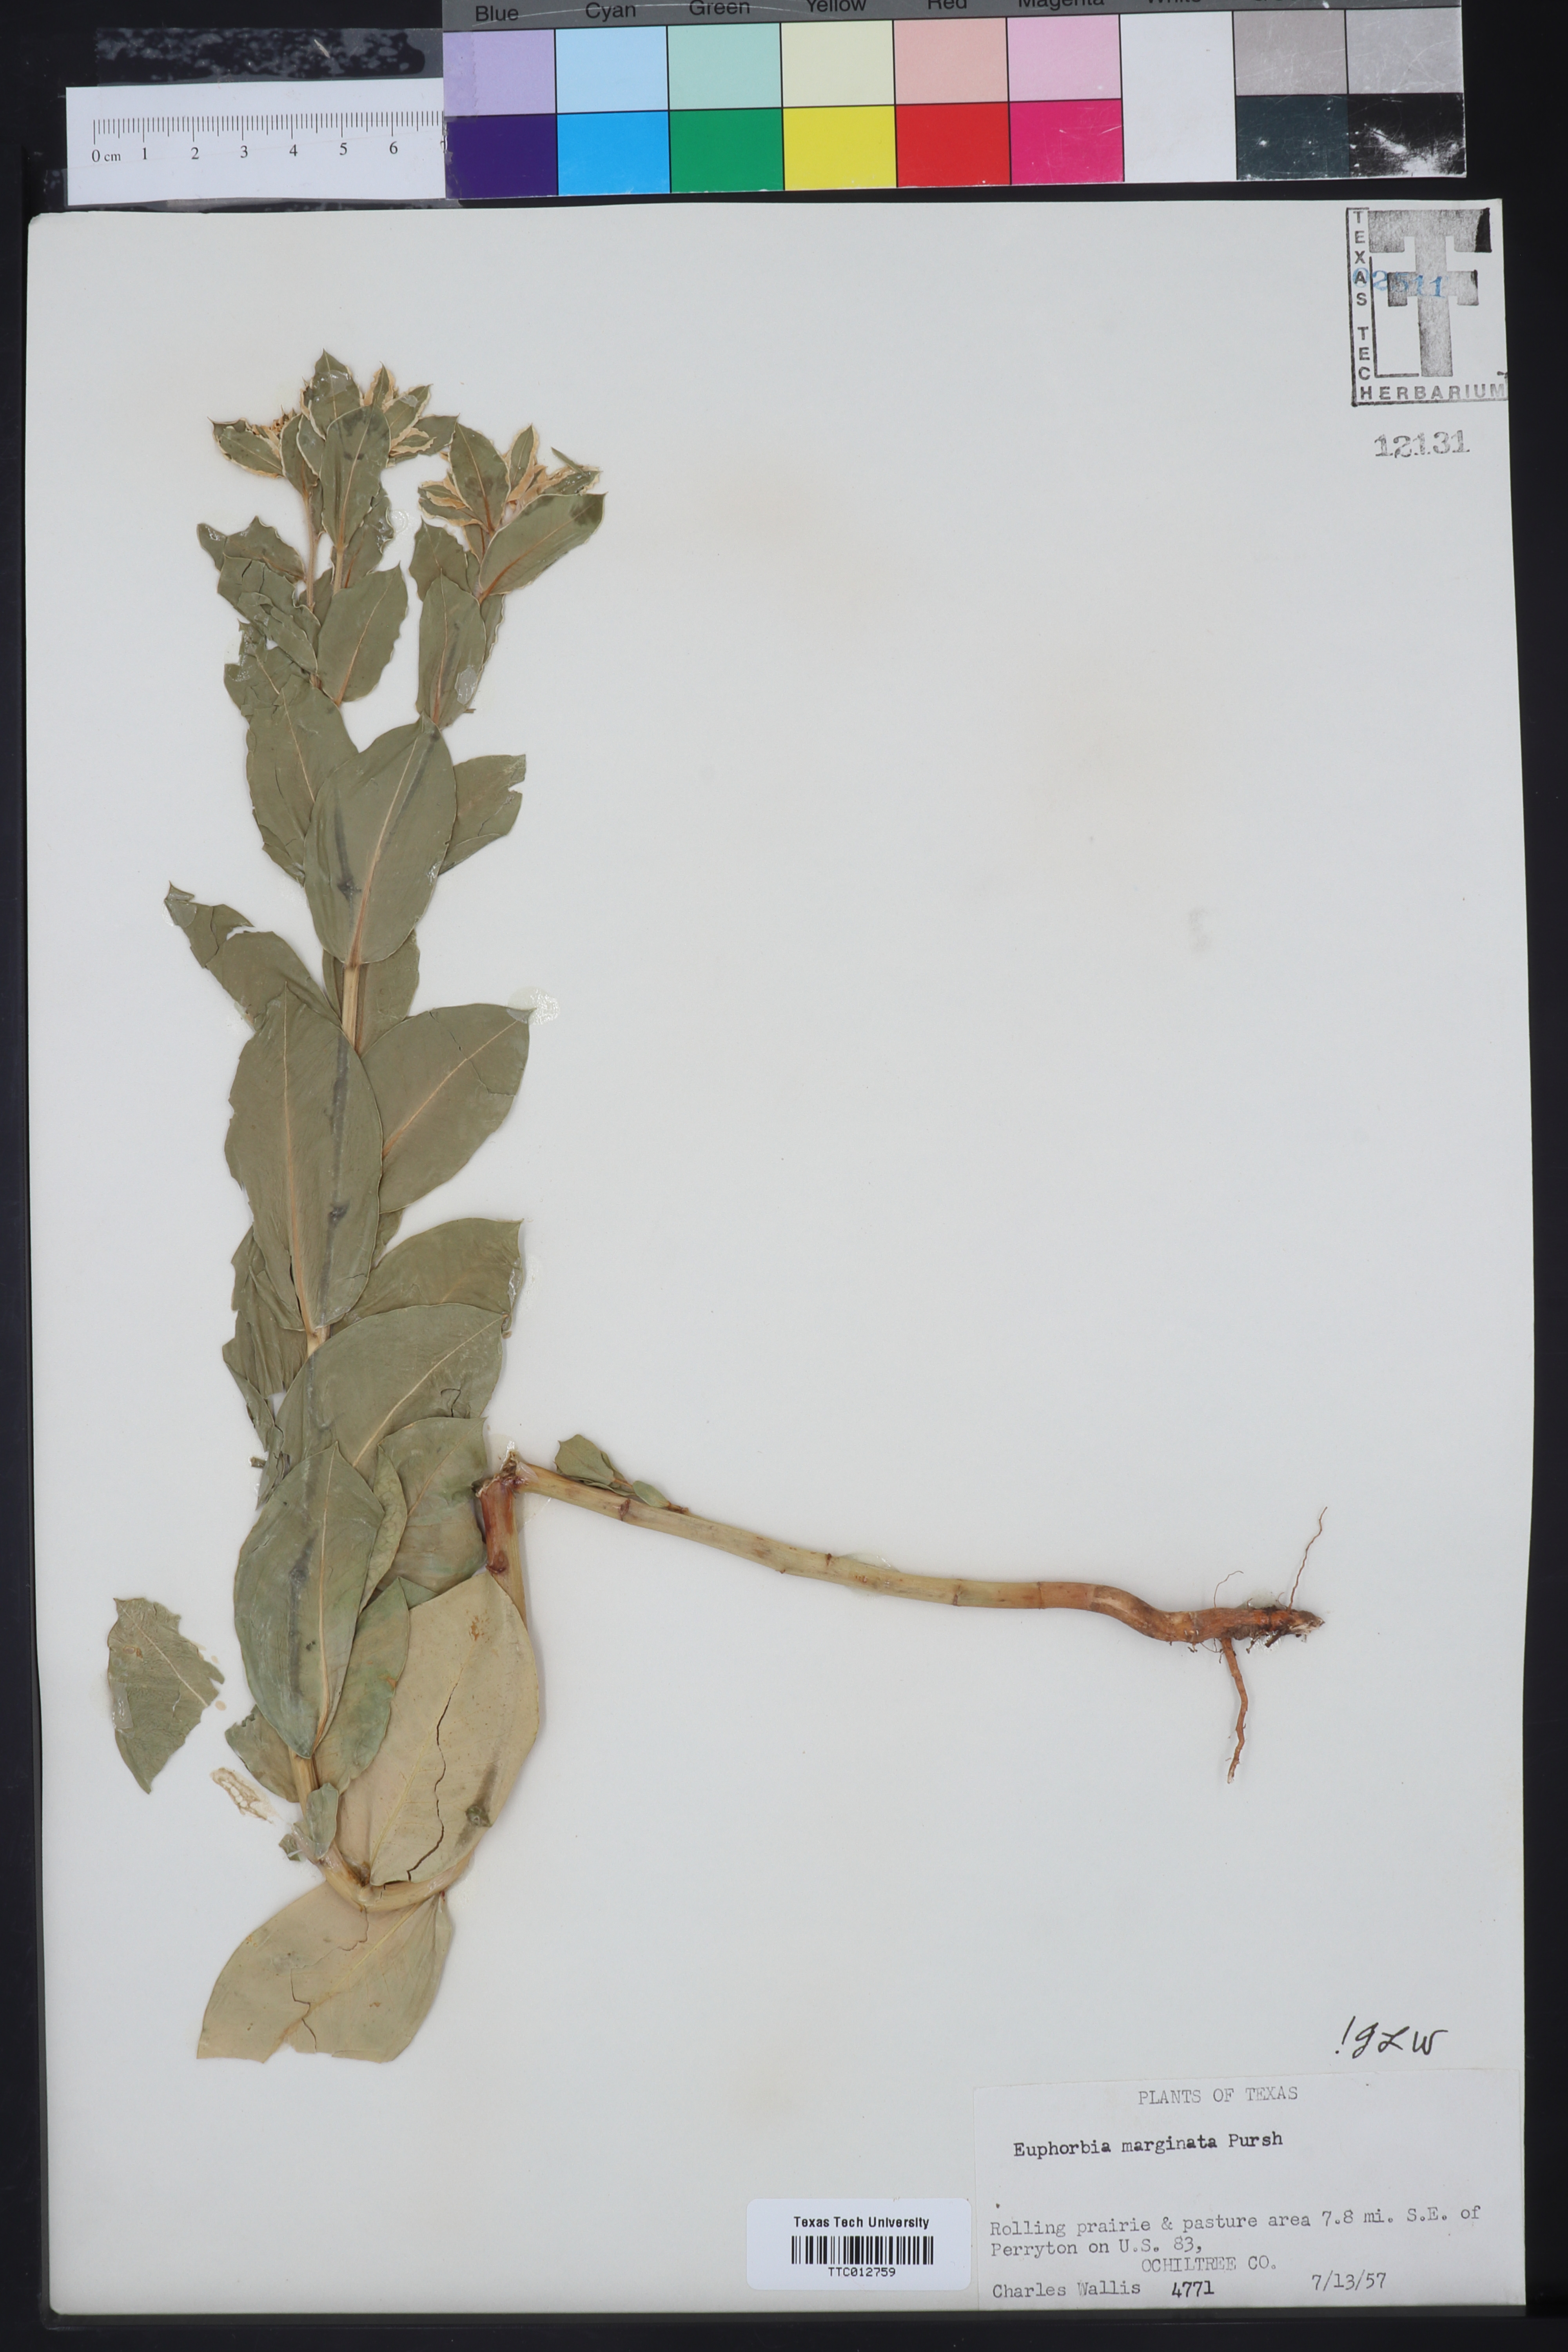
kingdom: Plantae
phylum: Tracheophyta
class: Magnoliopsida
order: Malpighiales
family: Euphorbiaceae
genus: Euphorbia
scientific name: Euphorbia marginata
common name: Ghostweed
